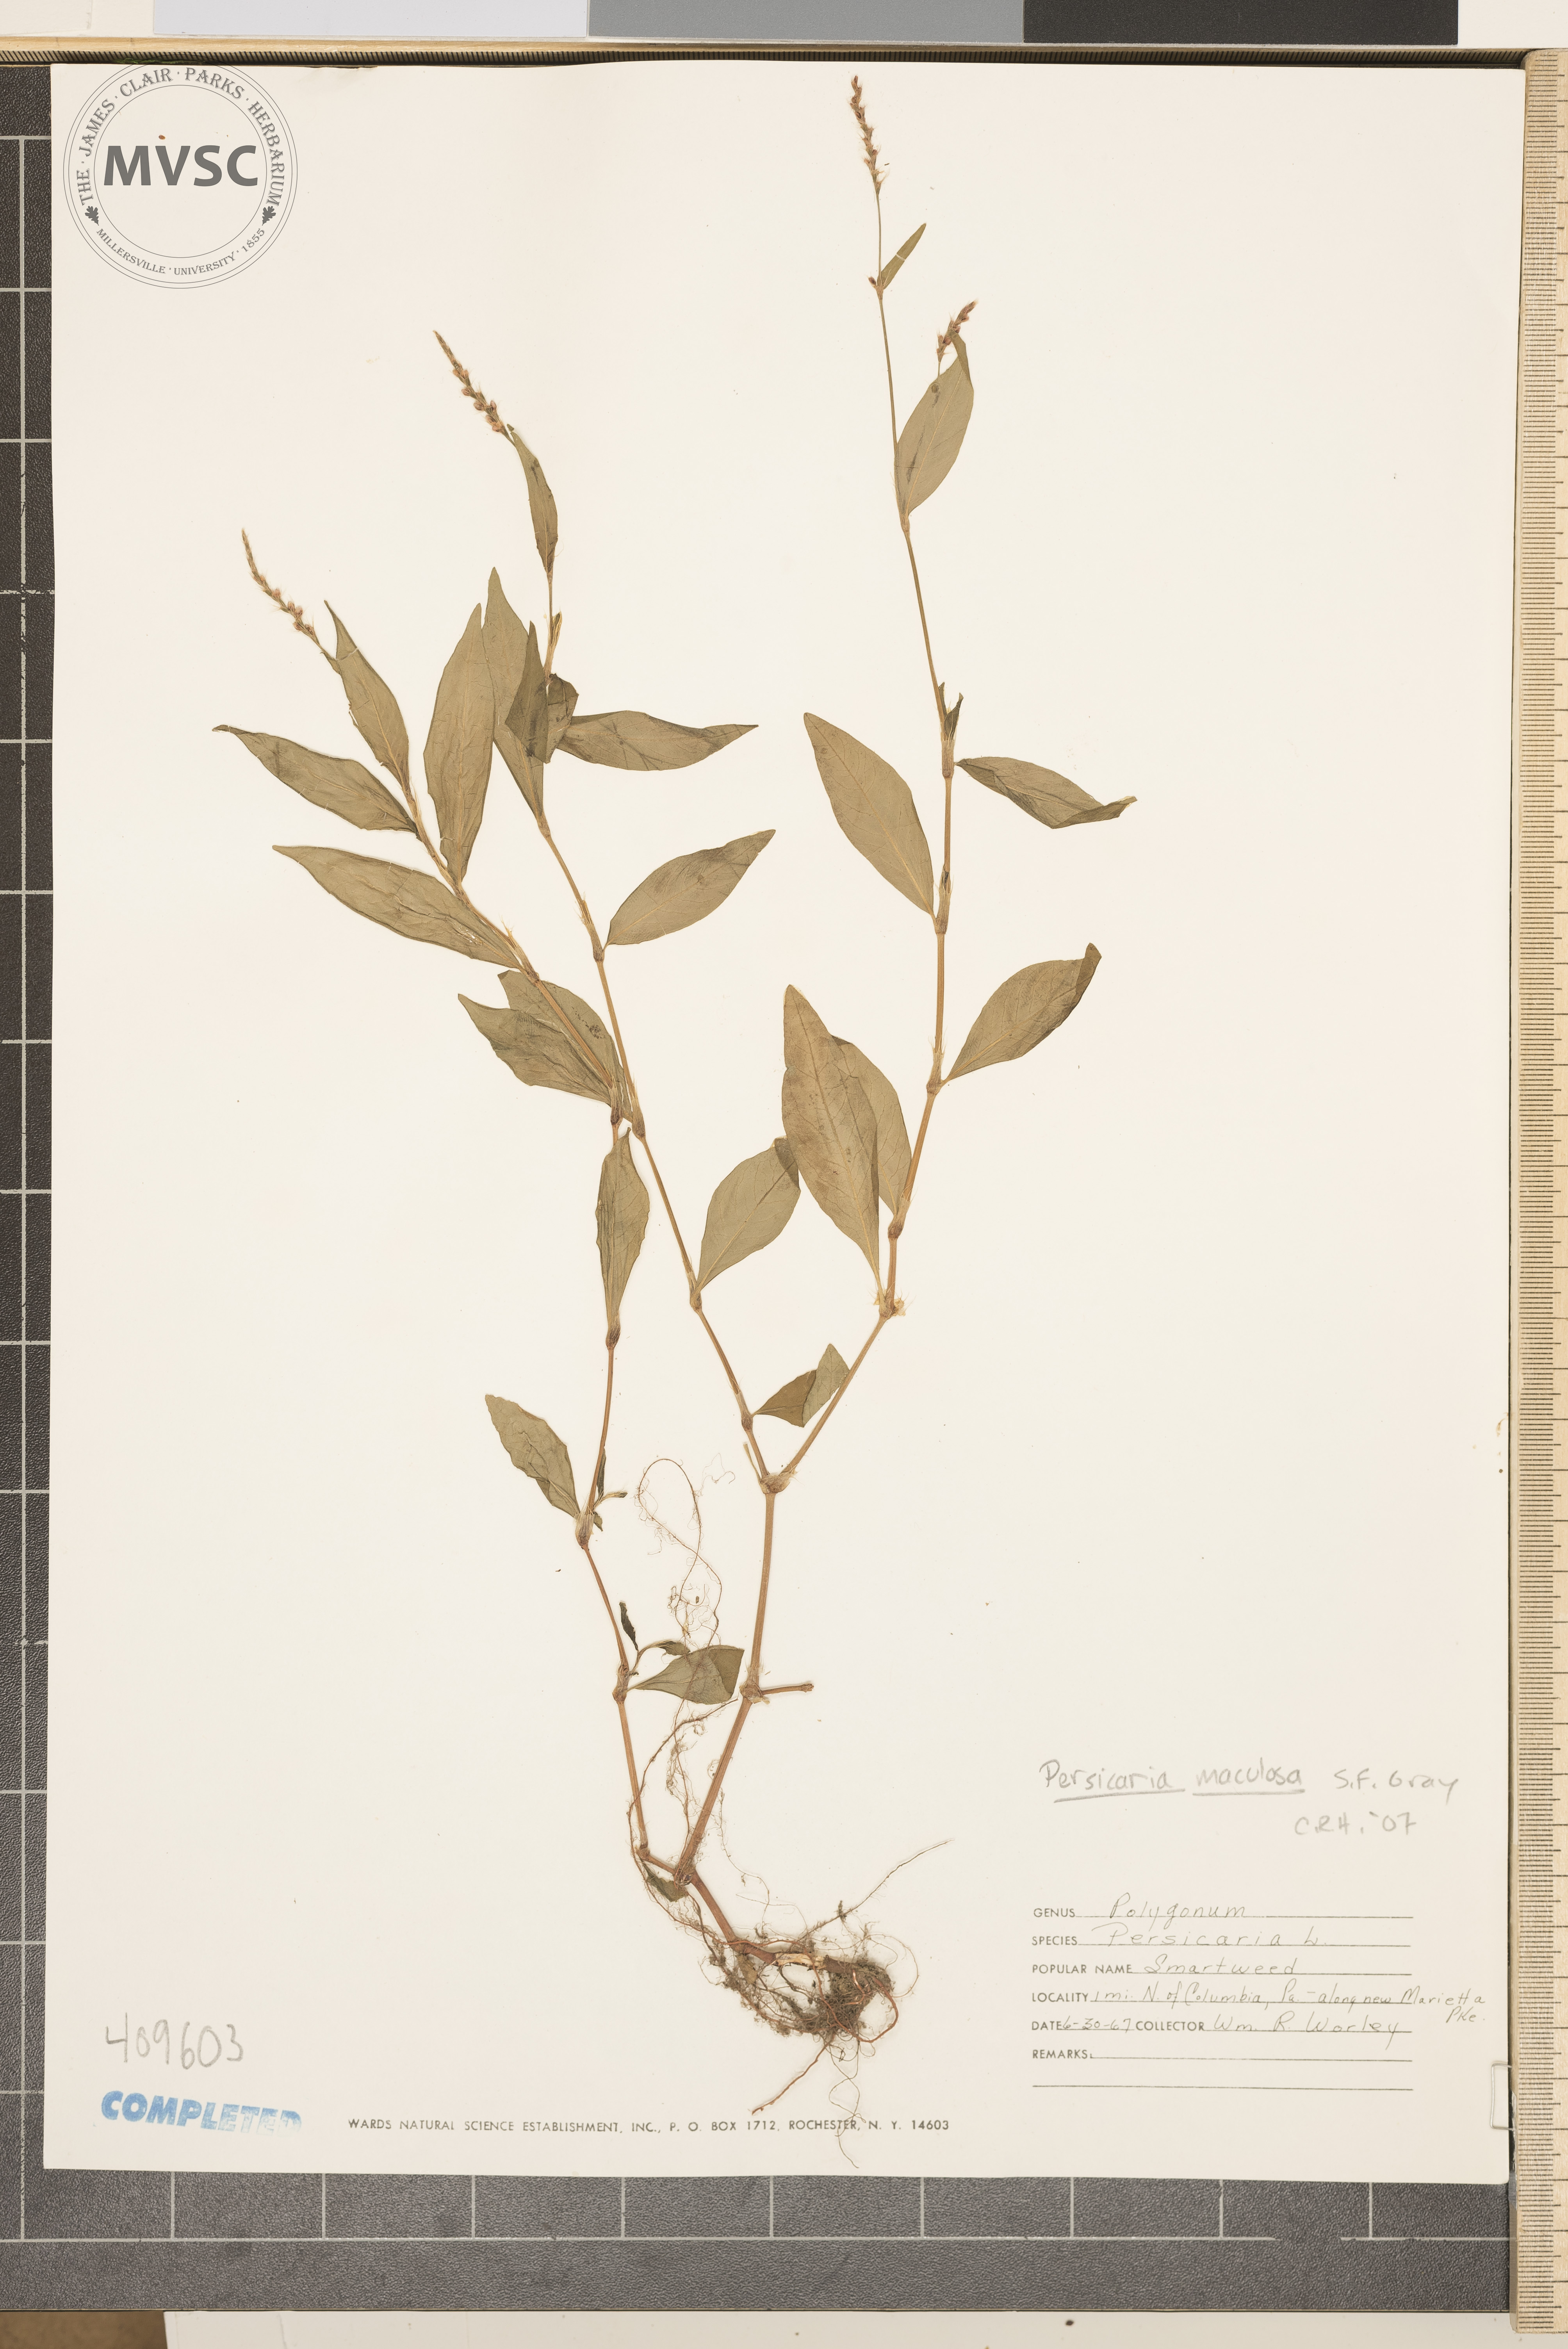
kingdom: Plantae
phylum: Tracheophyta
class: Magnoliopsida
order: Caryophyllales
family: Polygonaceae
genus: Persicaria
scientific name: Persicaria maculosa
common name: Redshank
